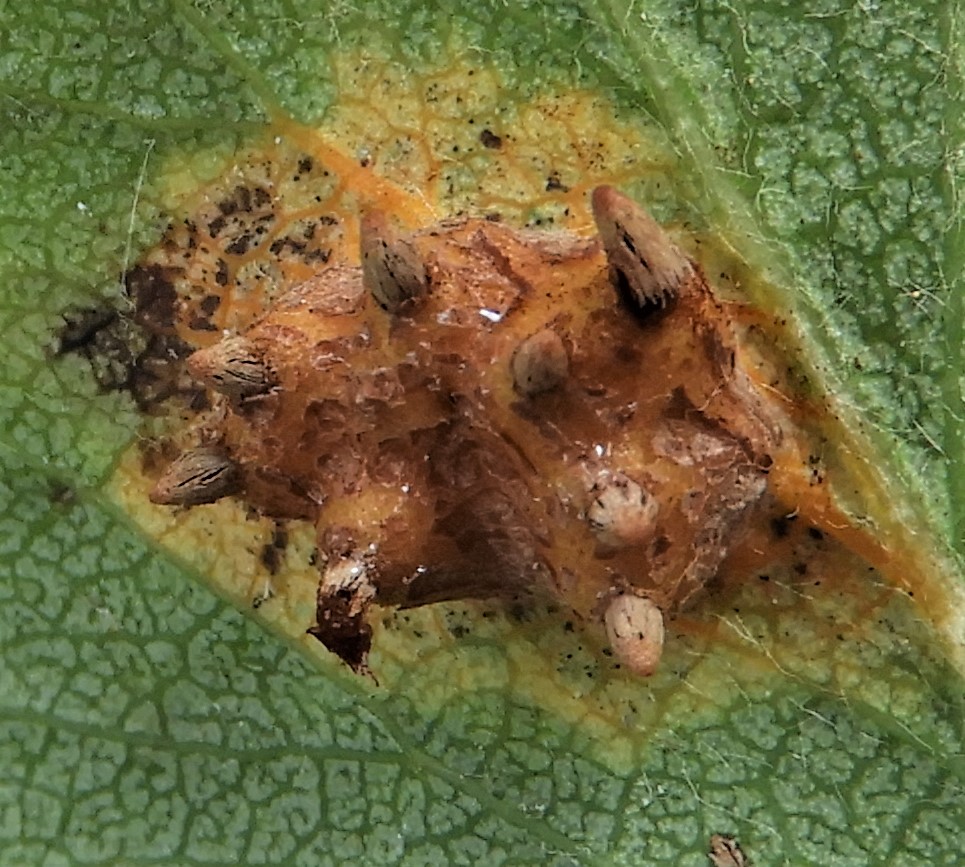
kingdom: Fungi
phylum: Basidiomycota
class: Pucciniomycetes
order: Pucciniales
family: Gymnosporangiaceae
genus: Gymnosporangium
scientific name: Gymnosporangium sabinae
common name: pæregitter-bævrerust
